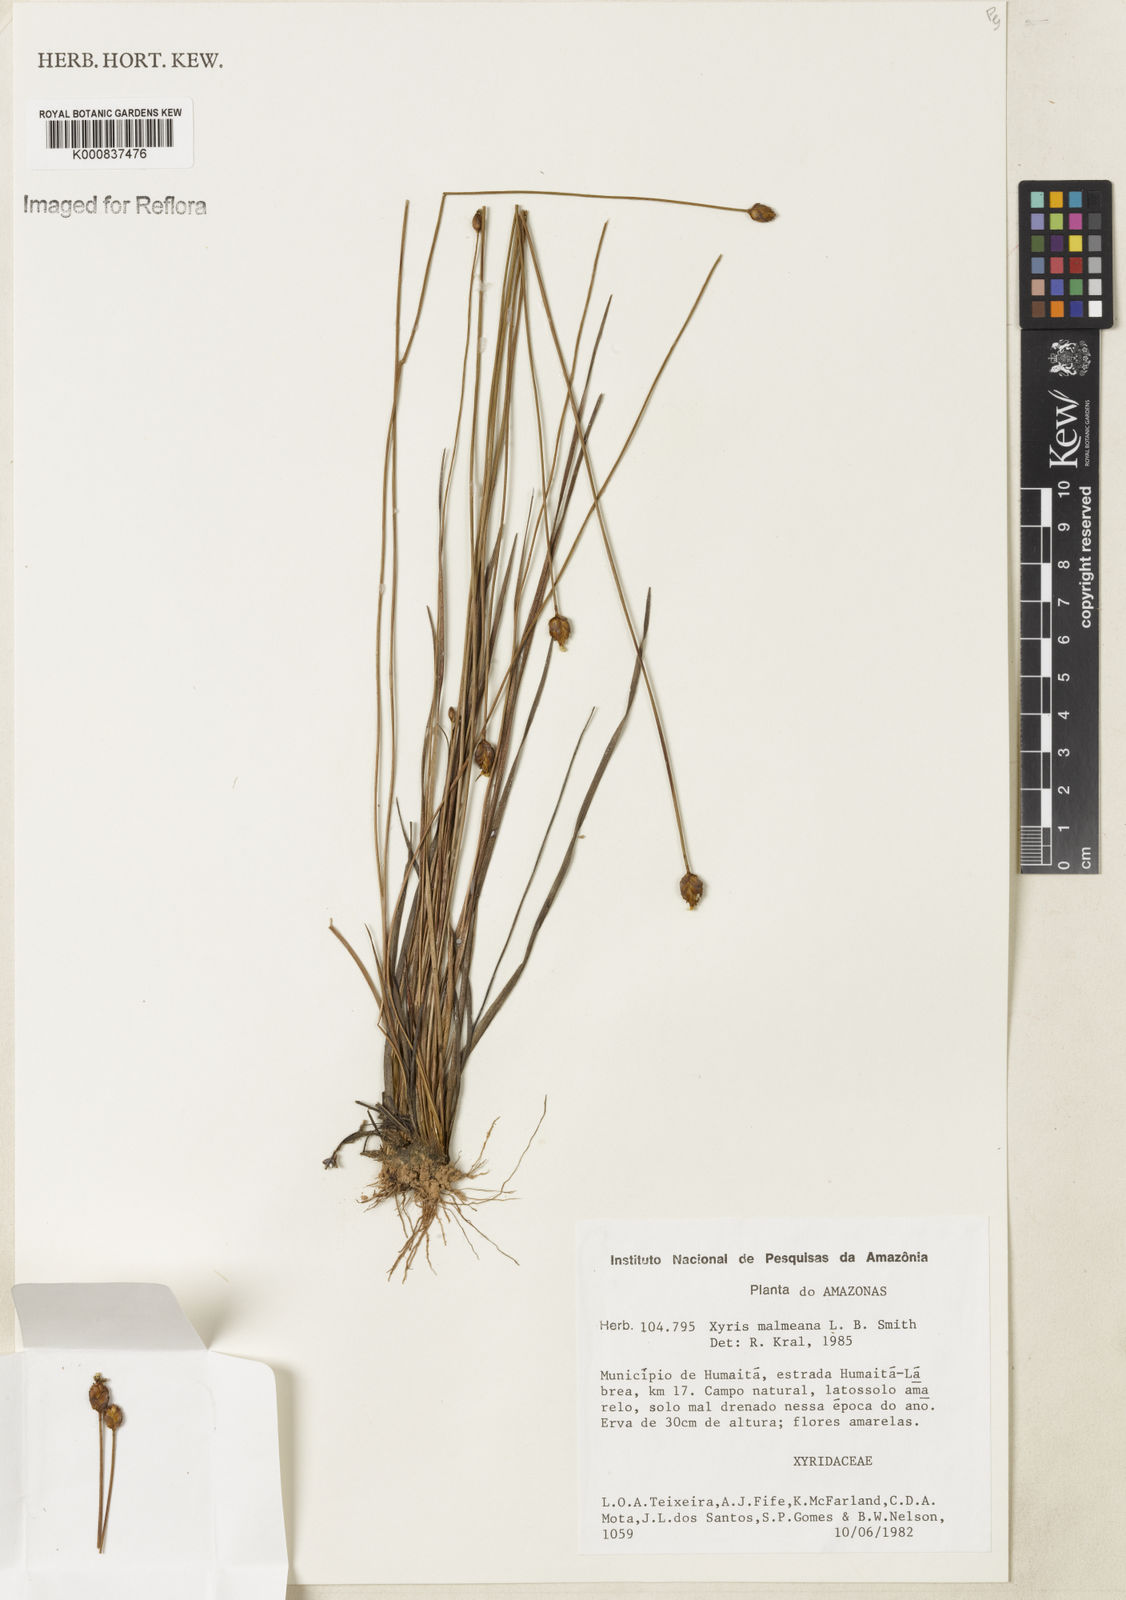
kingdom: Plantae
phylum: Tracheophyta
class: Liliopsida
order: Poales
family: Xyridaceae
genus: Xyris
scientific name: Xyris malmeana
